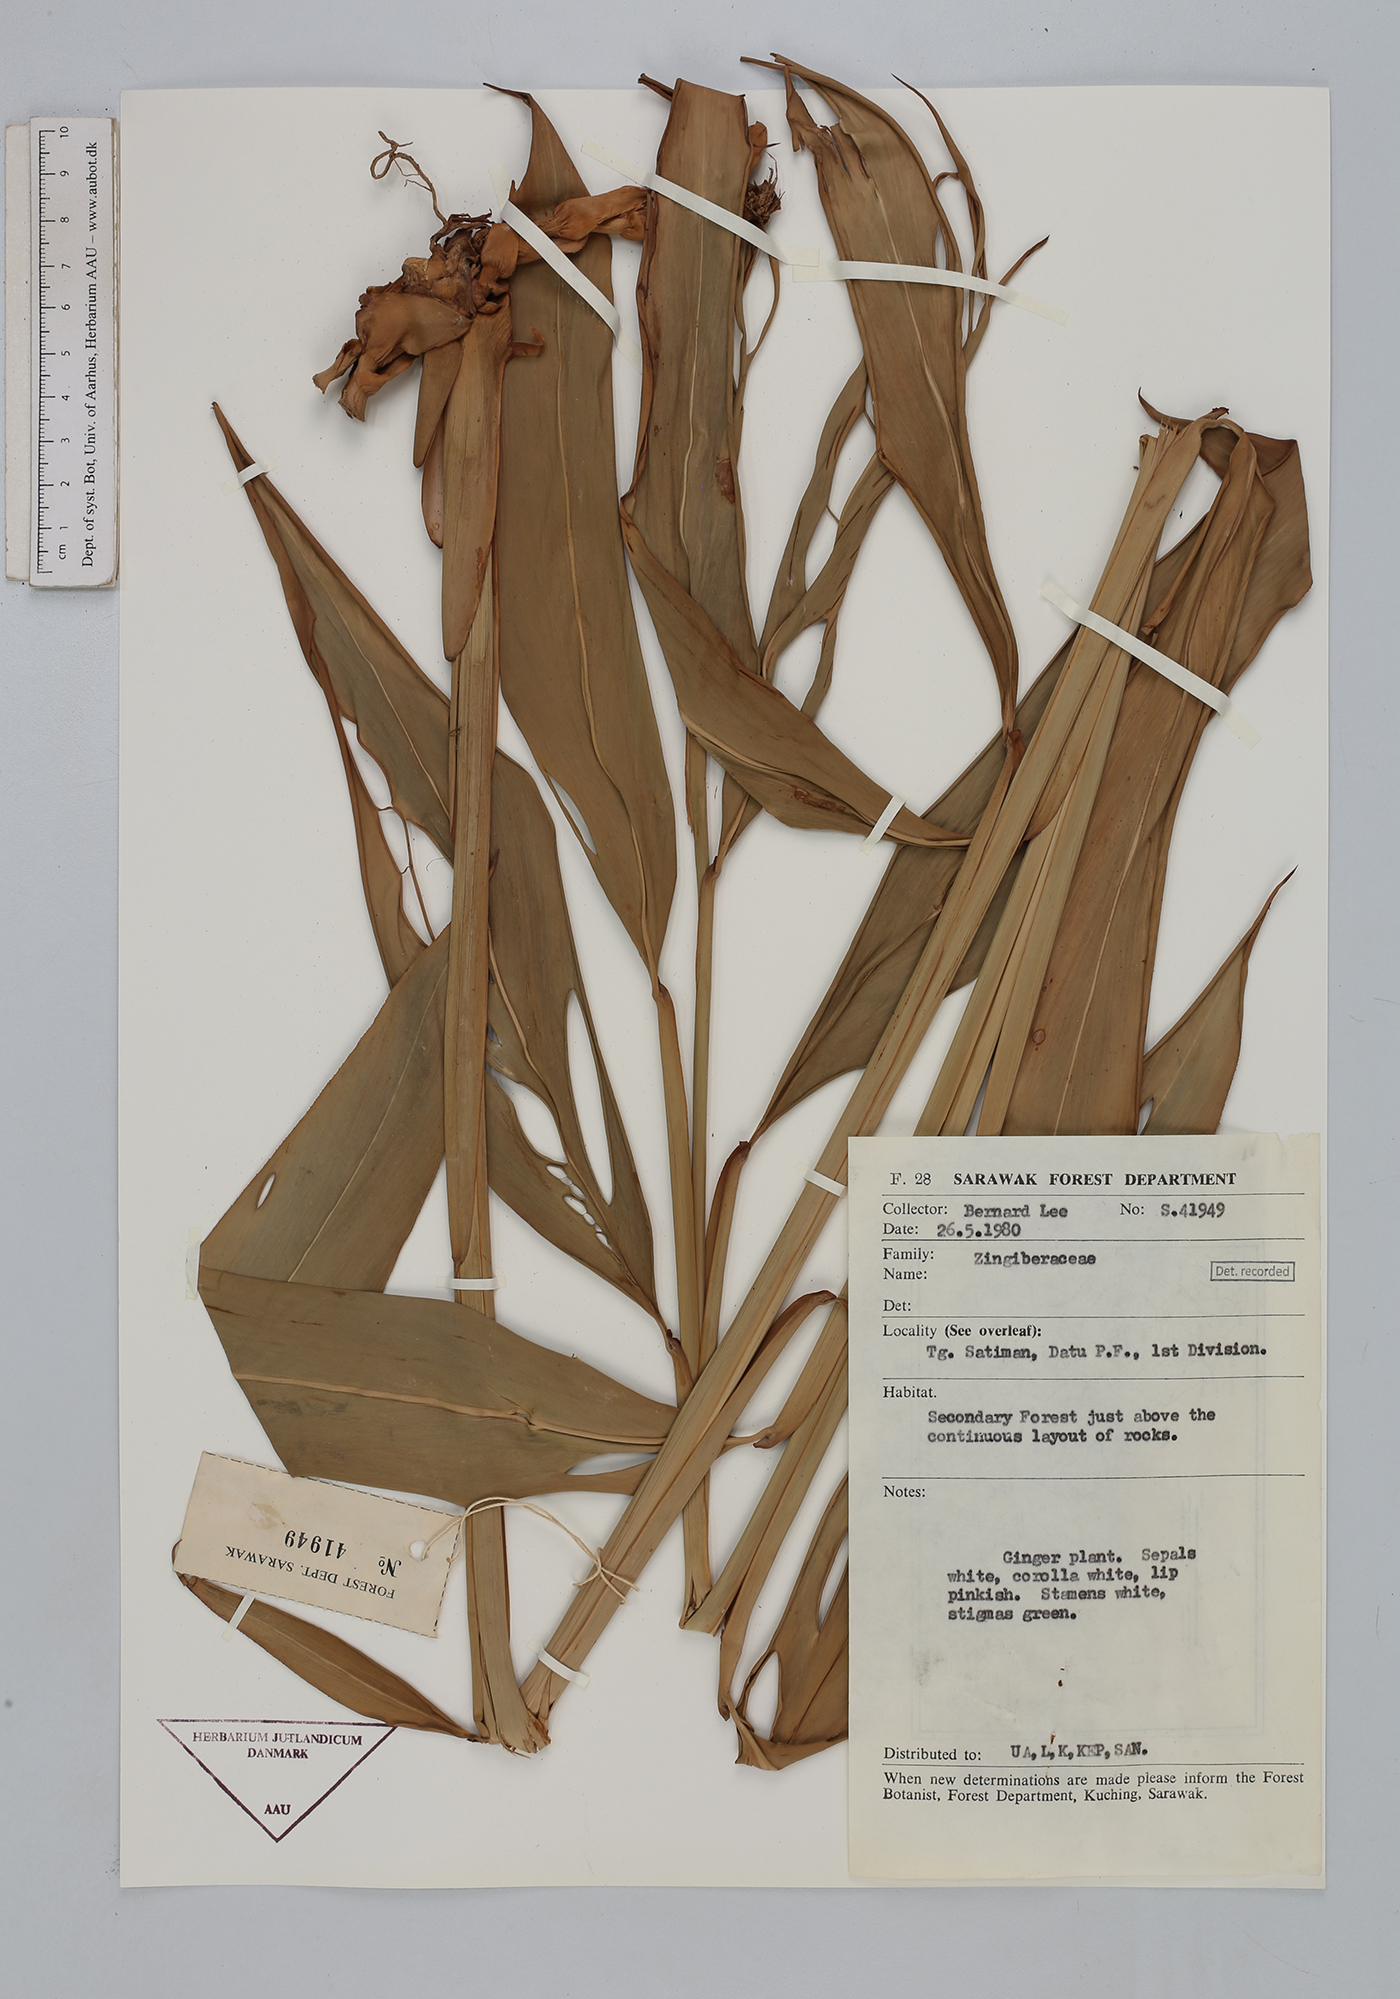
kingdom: Plantae
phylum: Tracheophyta
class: Liliopsida
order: Zingiberales
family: Zingiberaceae
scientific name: Zingiberaceae
